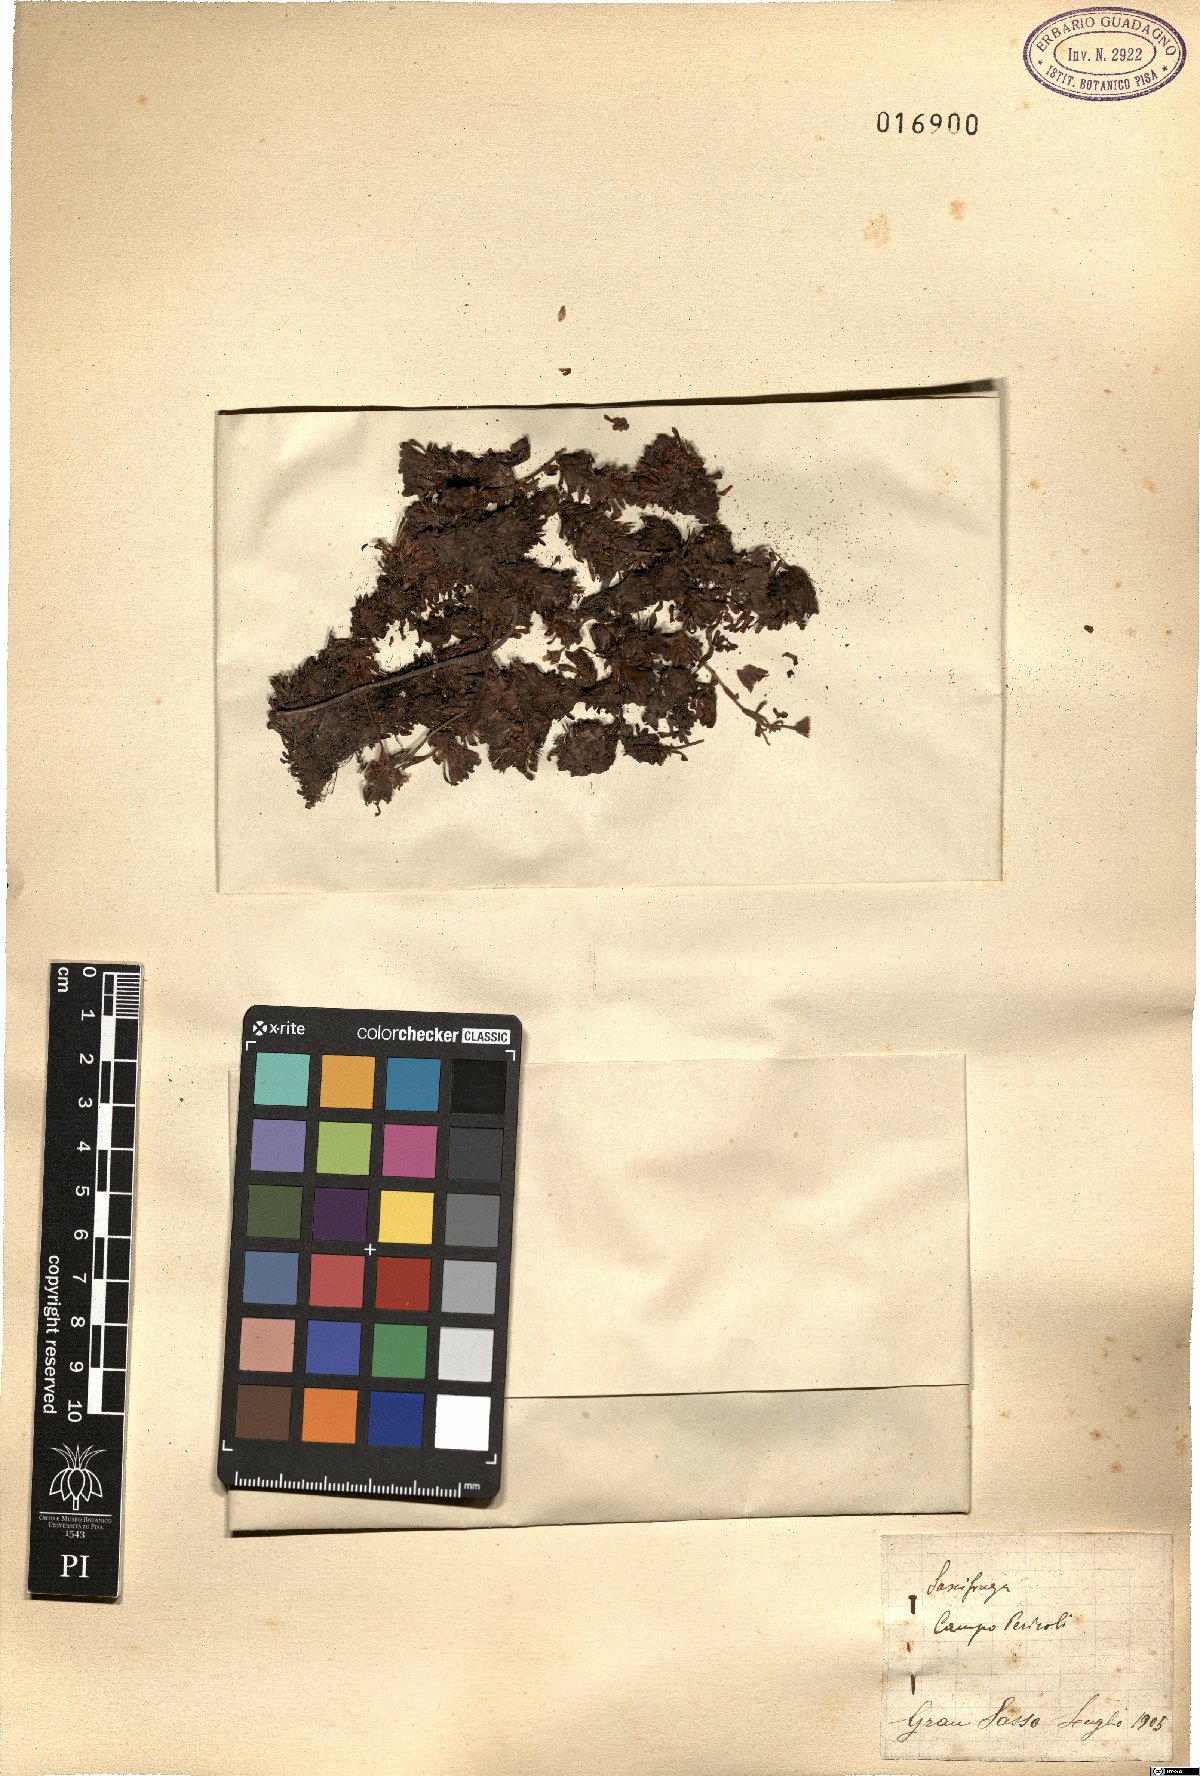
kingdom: Plantae
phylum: Tracheophyta
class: Magnoliopsida
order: Saxifragales
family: Saxifragaceae
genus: Saxifraga
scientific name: Saxifraga
